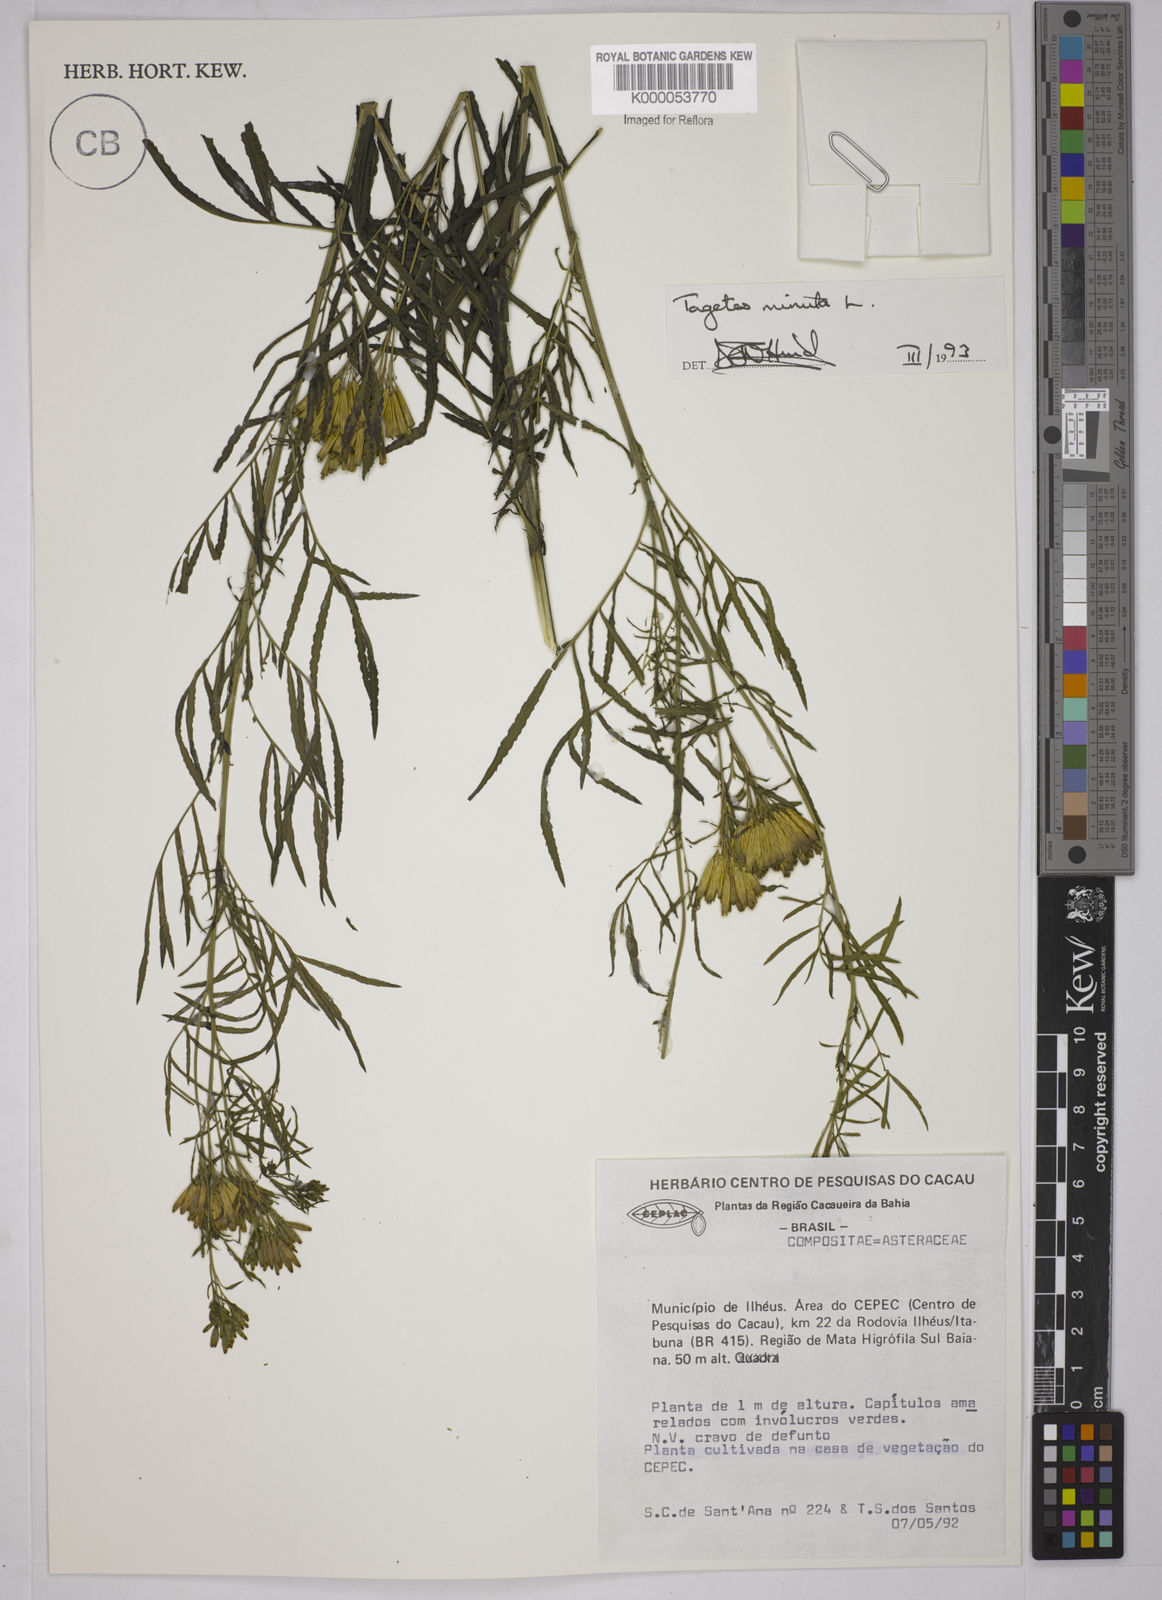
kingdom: Plantae
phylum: Tracheophyta
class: Magnoliopsida
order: Asterales
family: Asteraceae
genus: Tagetes
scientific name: Tagetes minuta
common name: Muster john henry
